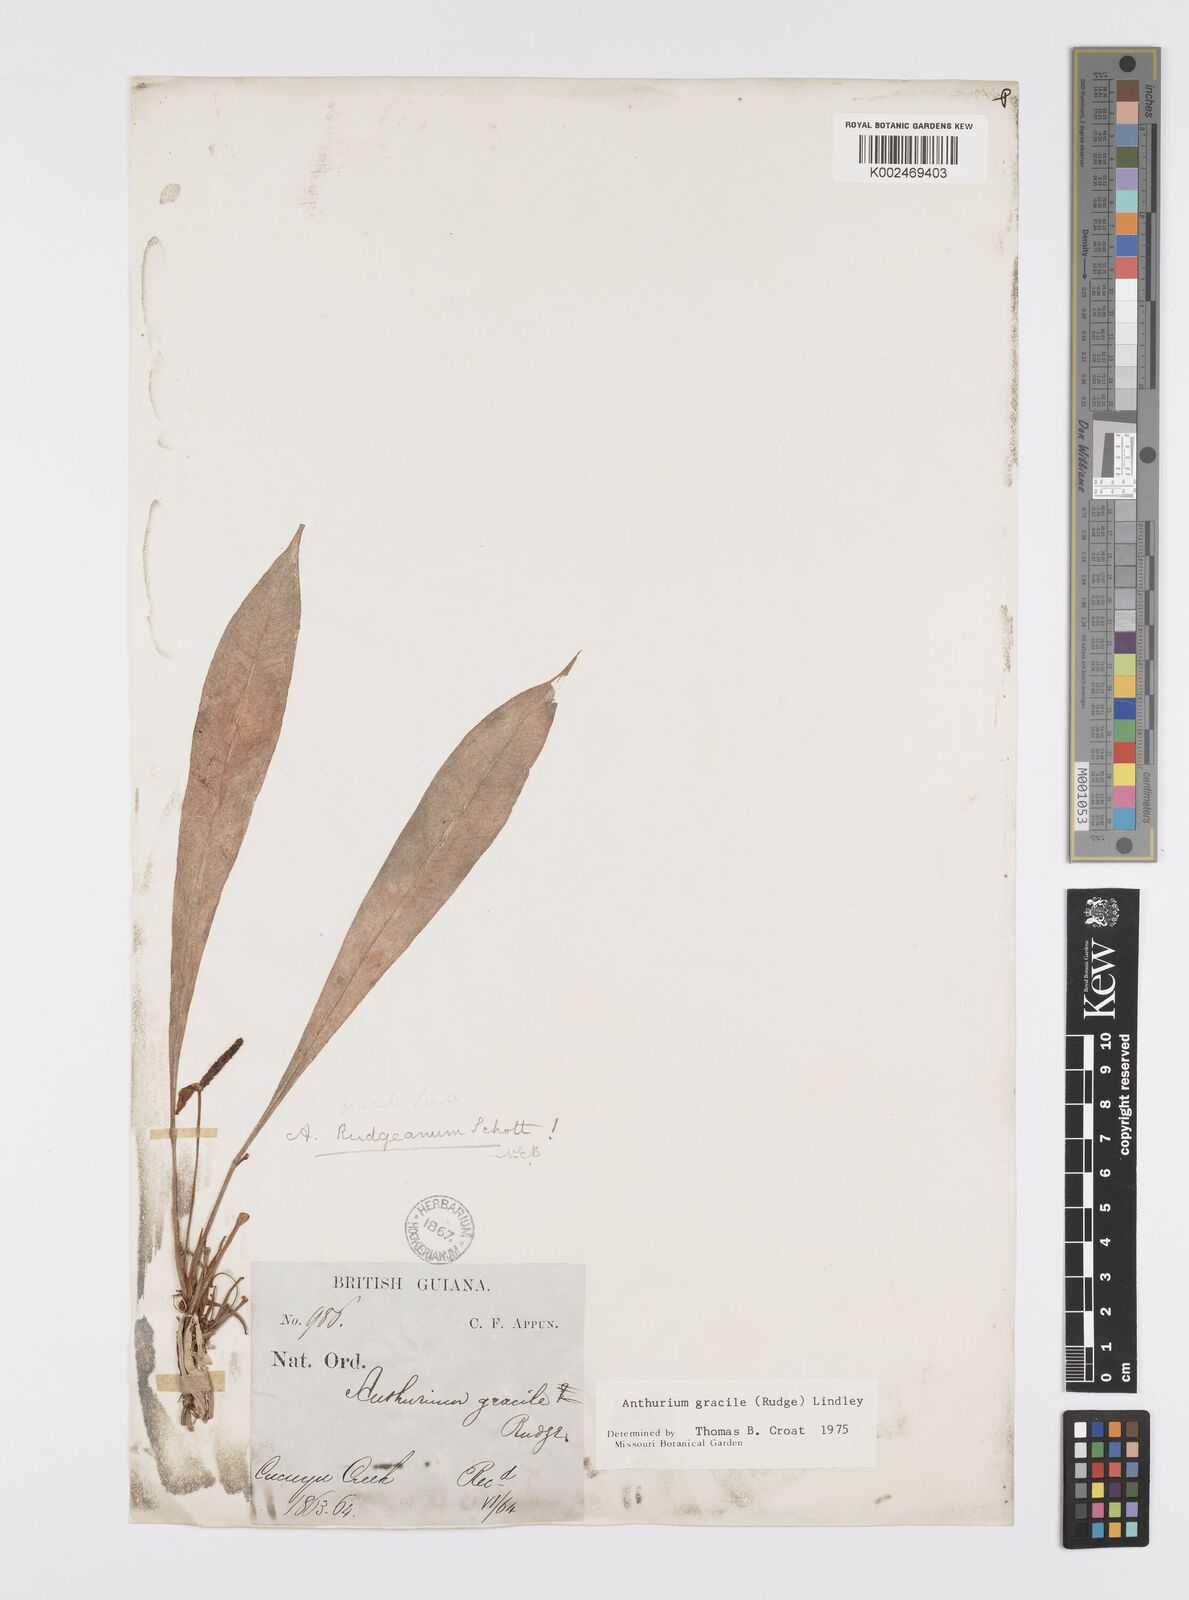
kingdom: Plantae
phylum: Tracheophyta
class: Liliopsida
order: Alismatales
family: Araceae
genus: Anthurium
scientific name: Anthurium gracile
